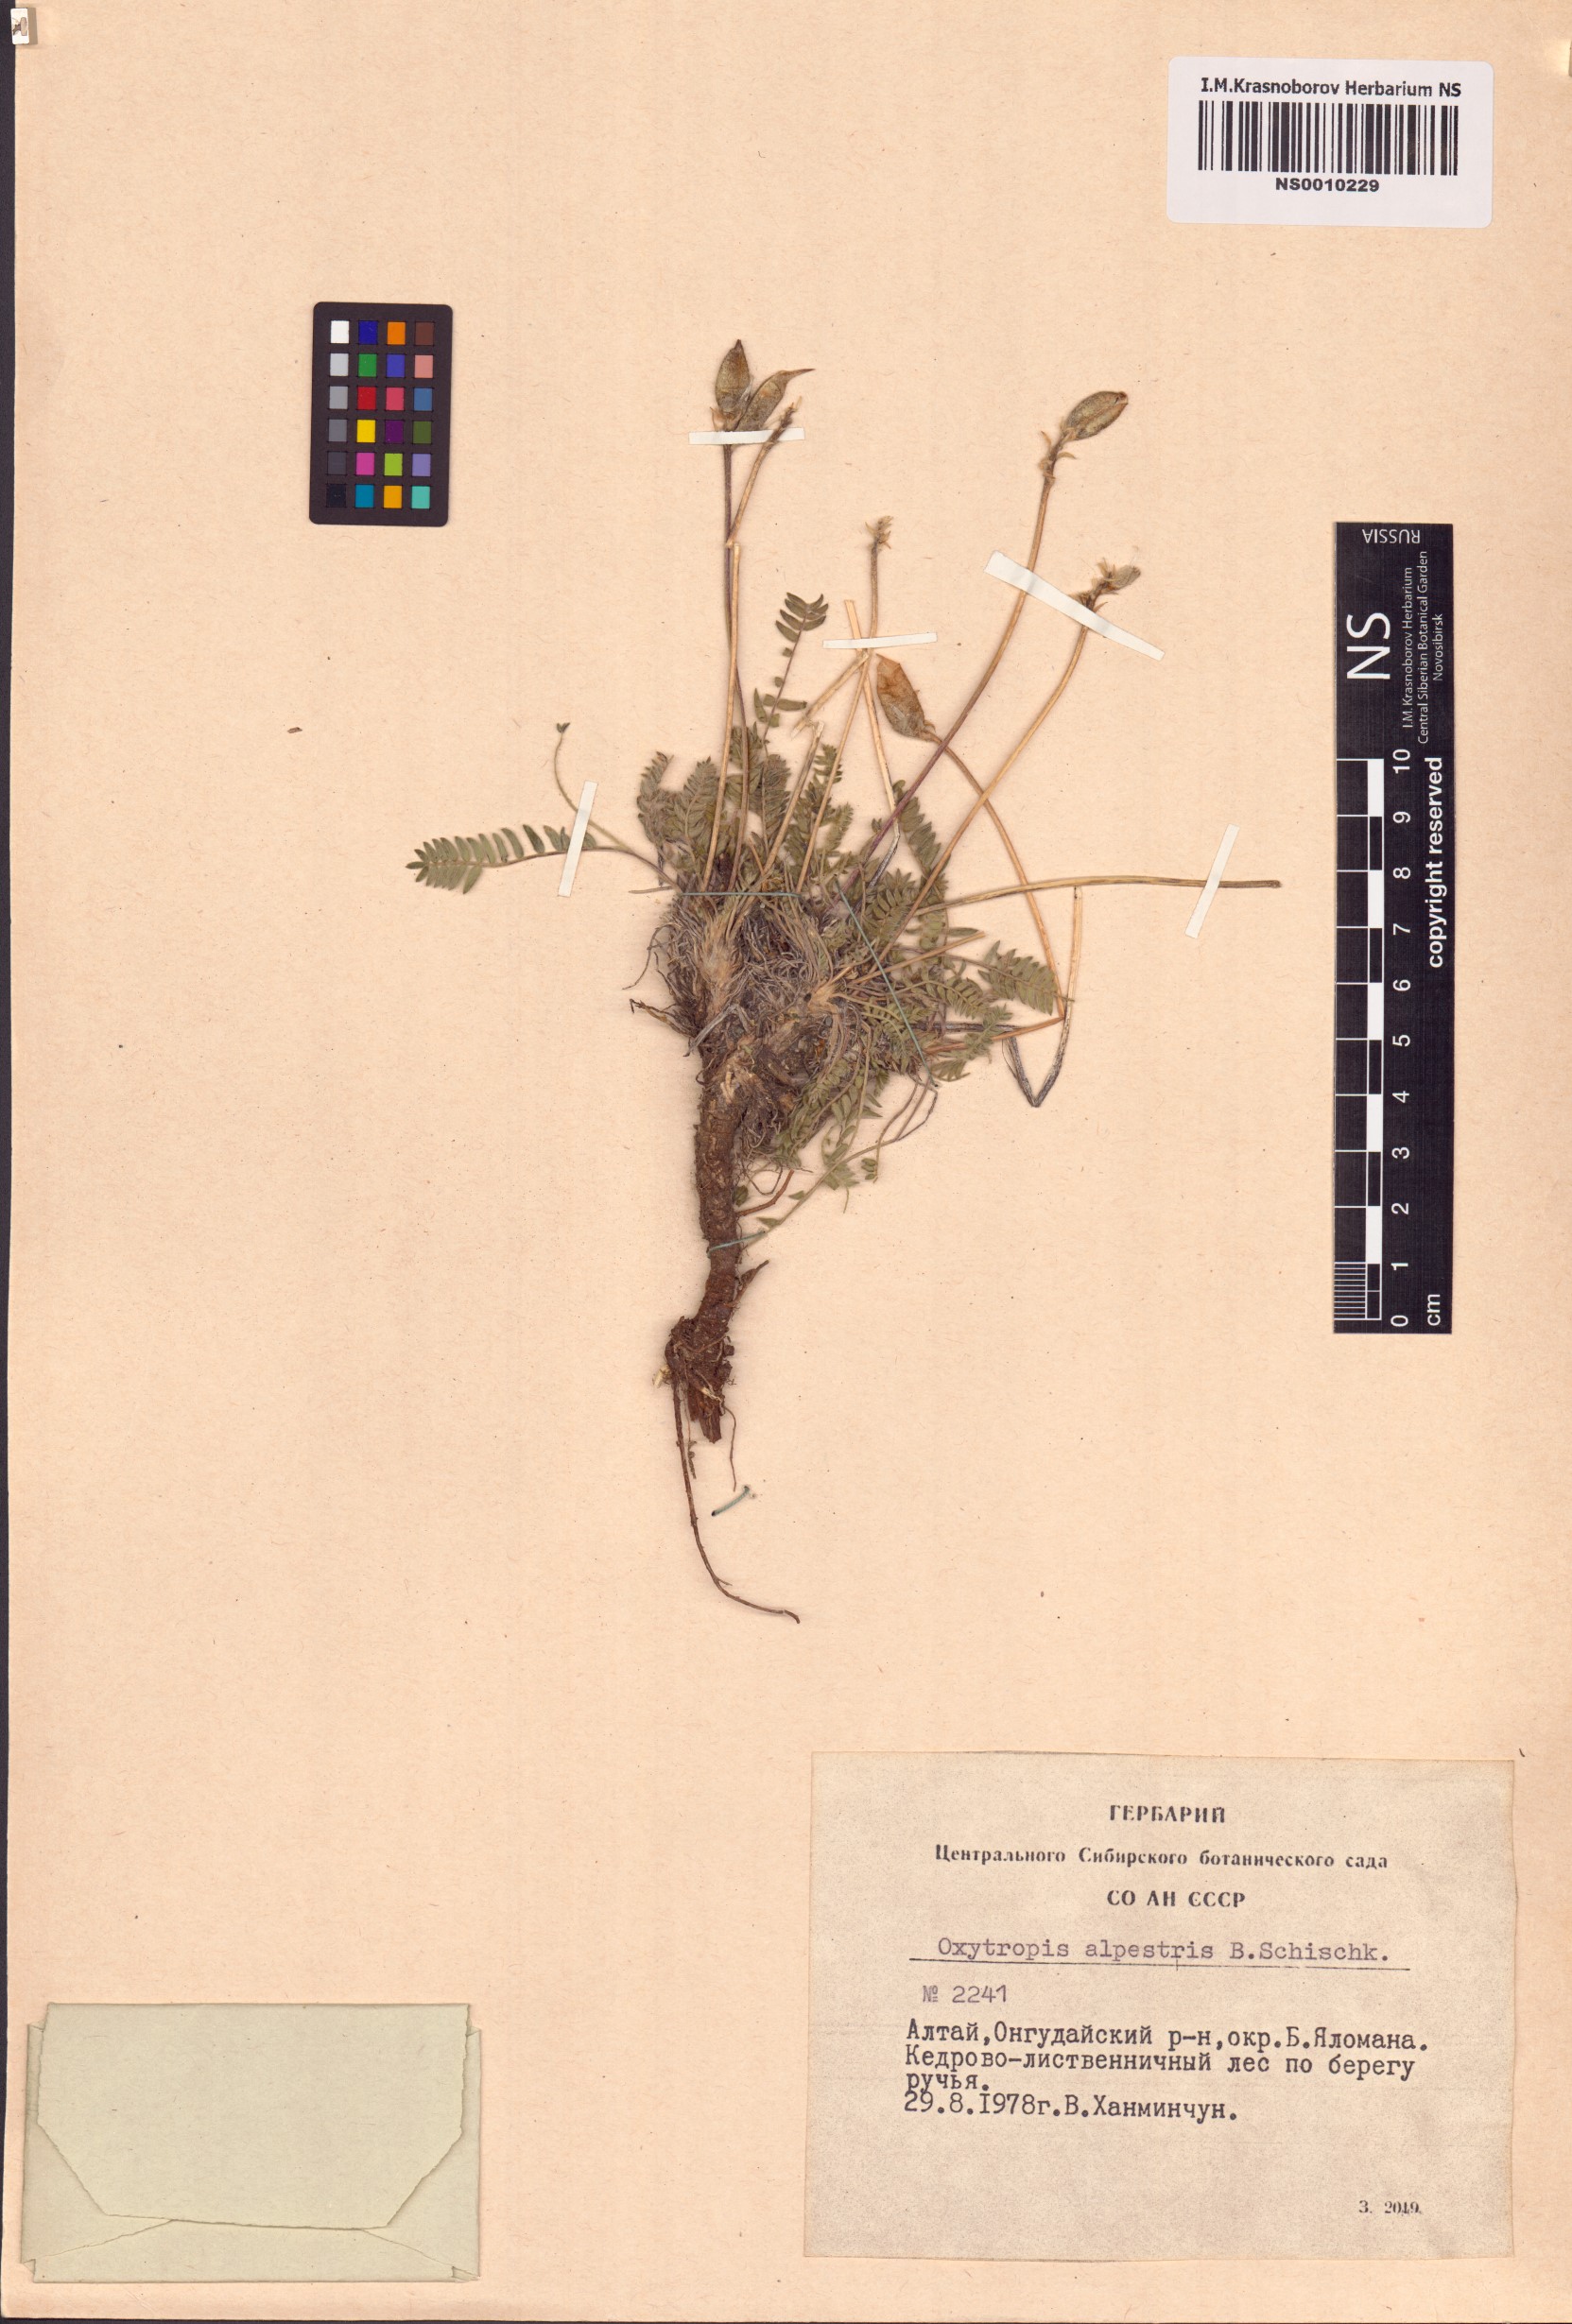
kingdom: Plantae
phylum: Tracheophyta
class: Magnoliopsida
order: Fabales
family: Fabaceae
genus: Oxytropis
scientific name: Oxytropis alpestris
